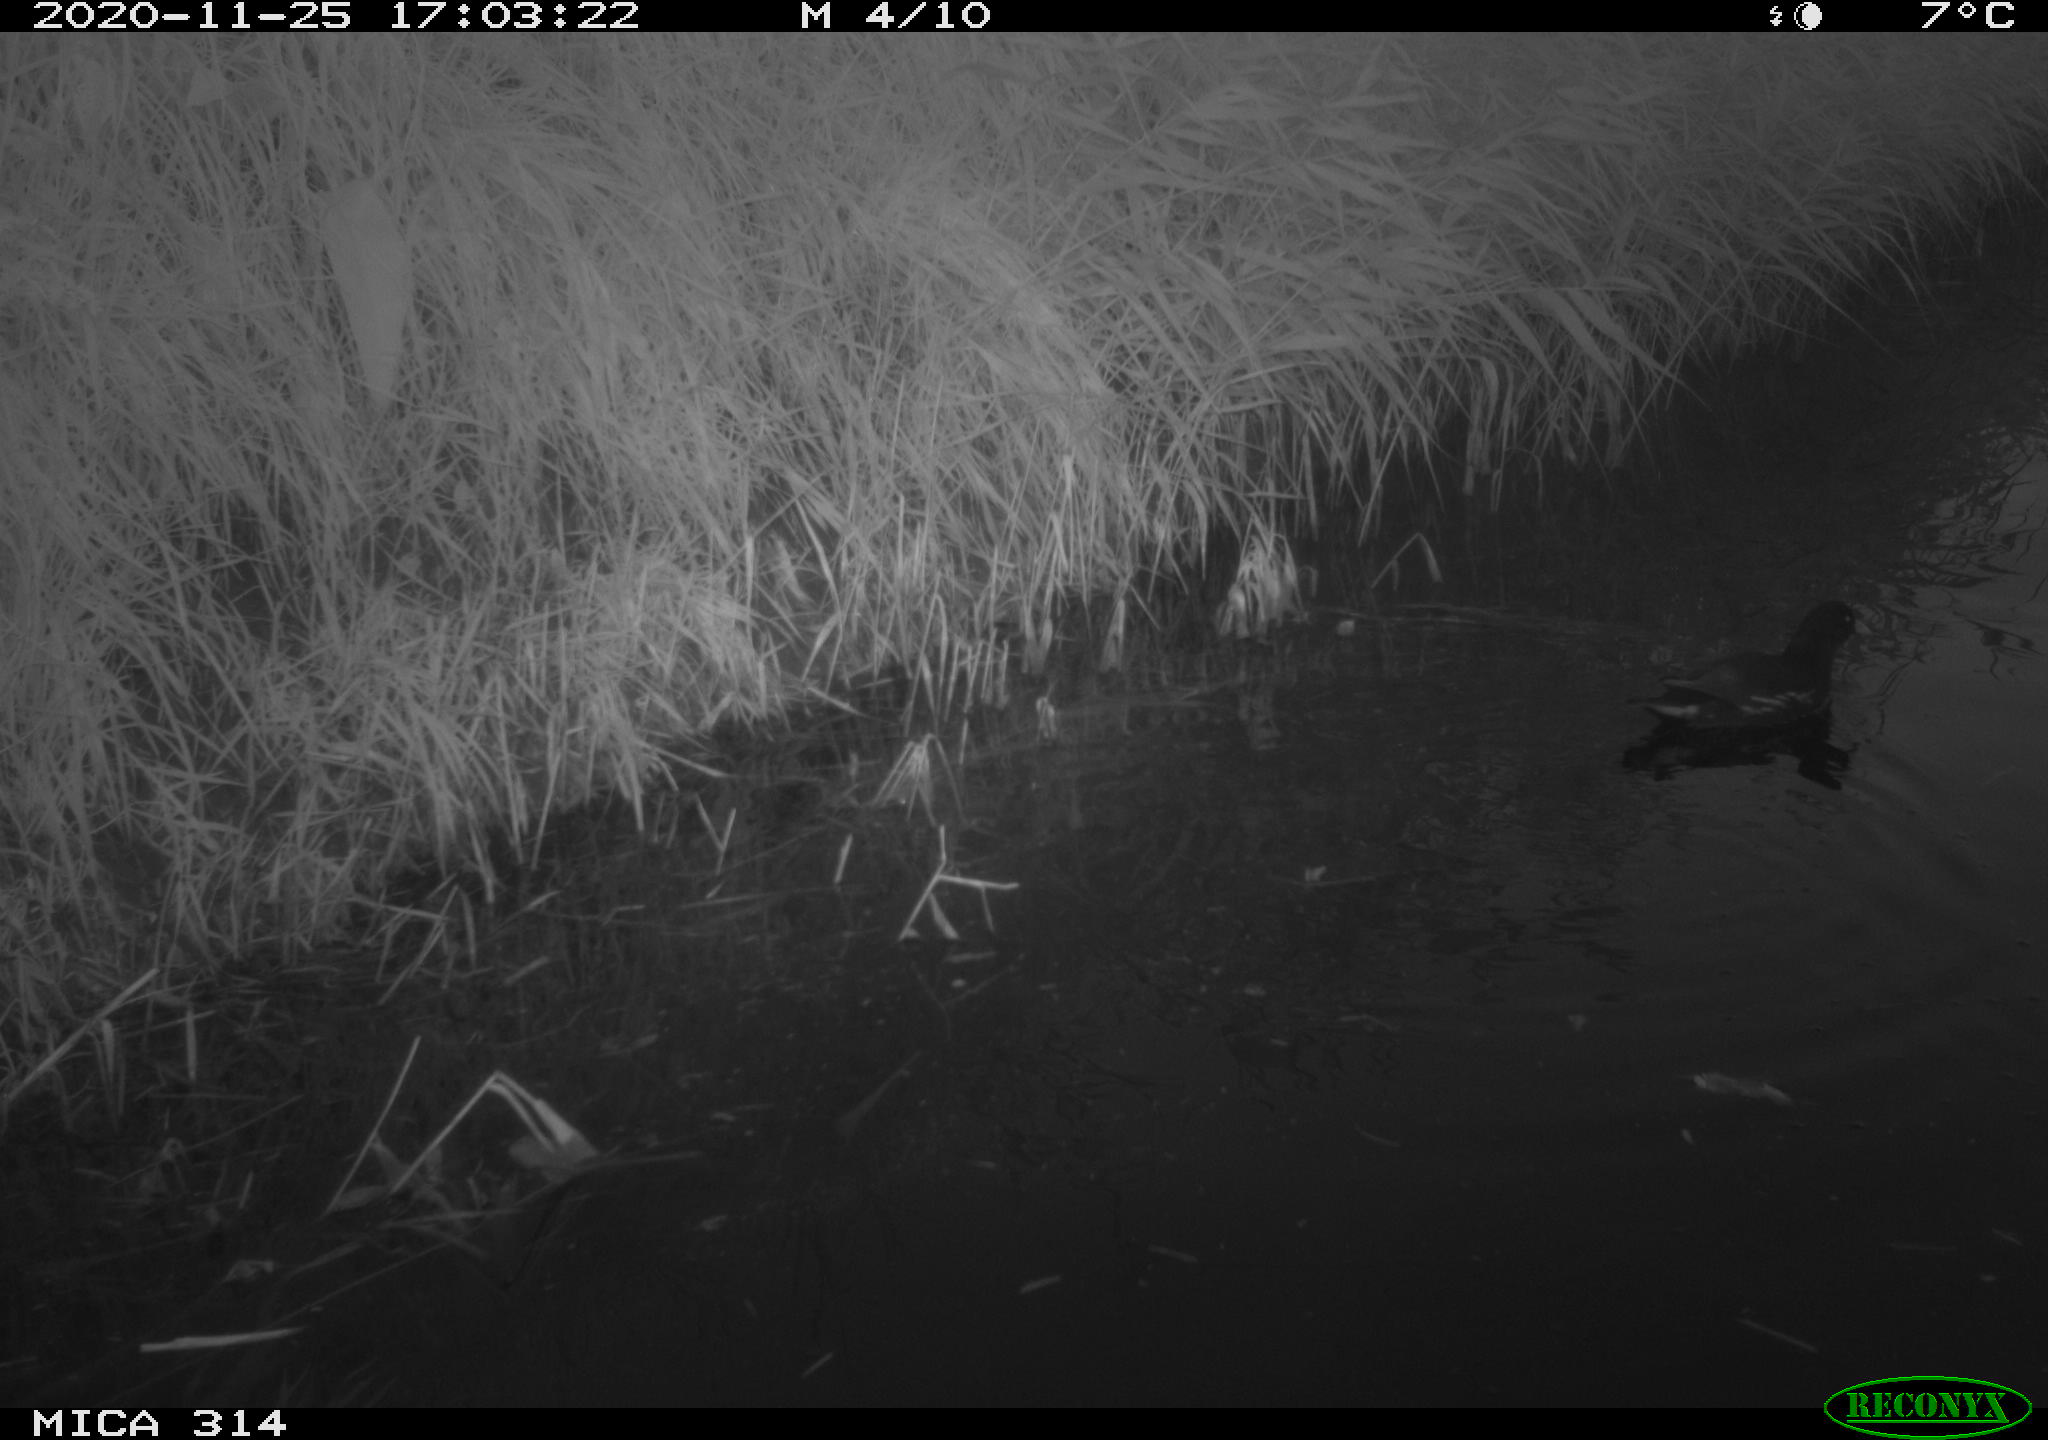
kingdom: Animalia
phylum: Chordata
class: Aves
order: Gruiformes
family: Rallidae
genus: Gallinula
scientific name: Gallinula chloropus
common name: Common moorhen
